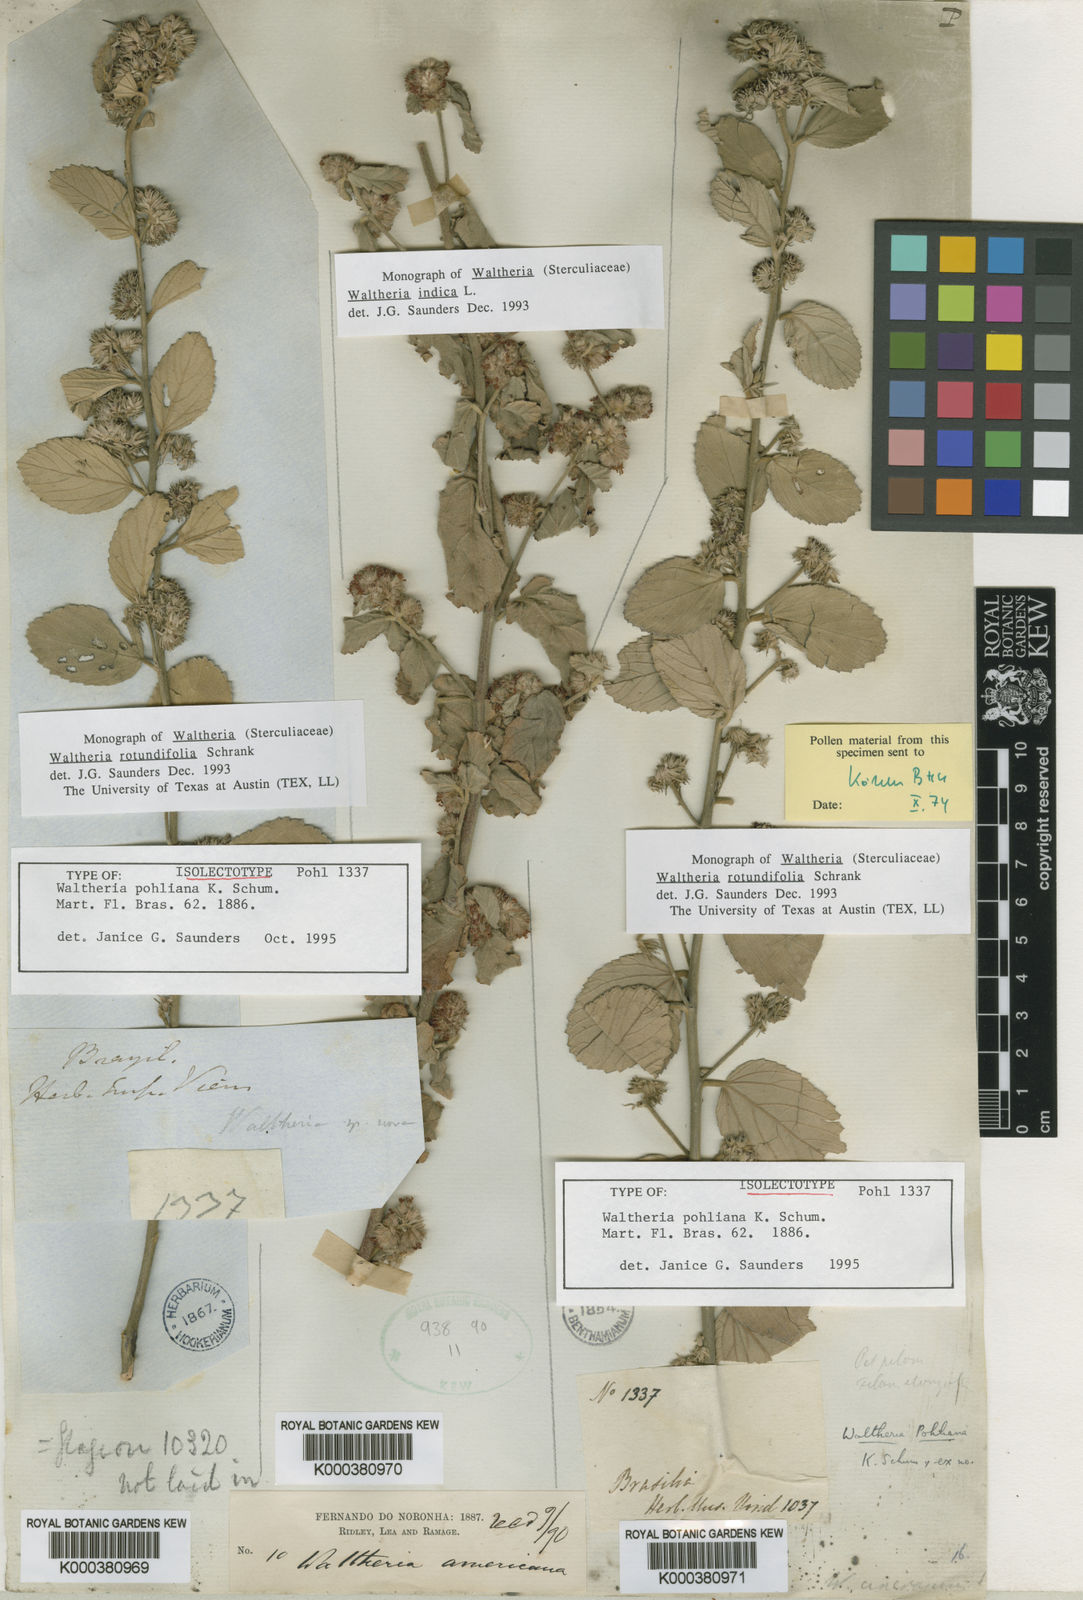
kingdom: Plantae
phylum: Tracheophyta
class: Magnoliopsida
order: Malvales
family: Malvaceae
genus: Waltheria
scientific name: Waltheria rotundifolia
